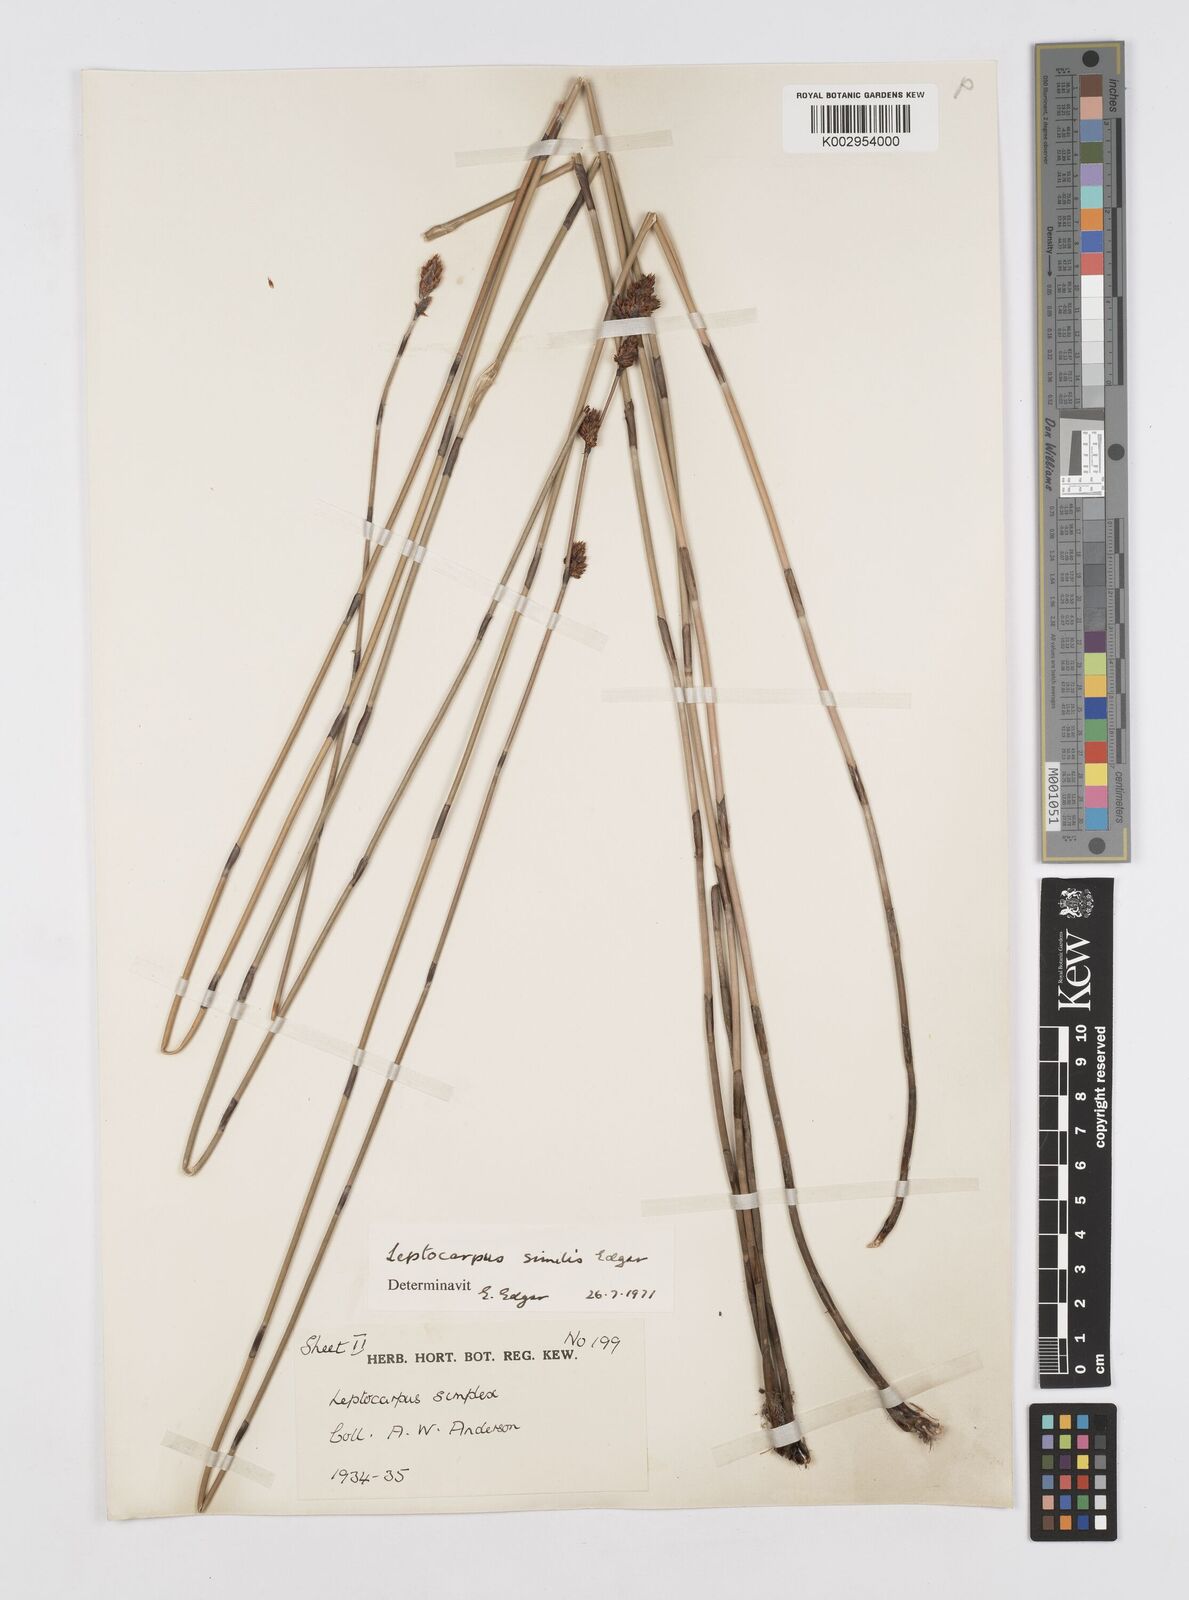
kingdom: Plantae
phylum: Tracheophyta
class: Liliopsida
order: Poales
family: Restionaceae
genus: Apodasmia
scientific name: Apodasmia similis
